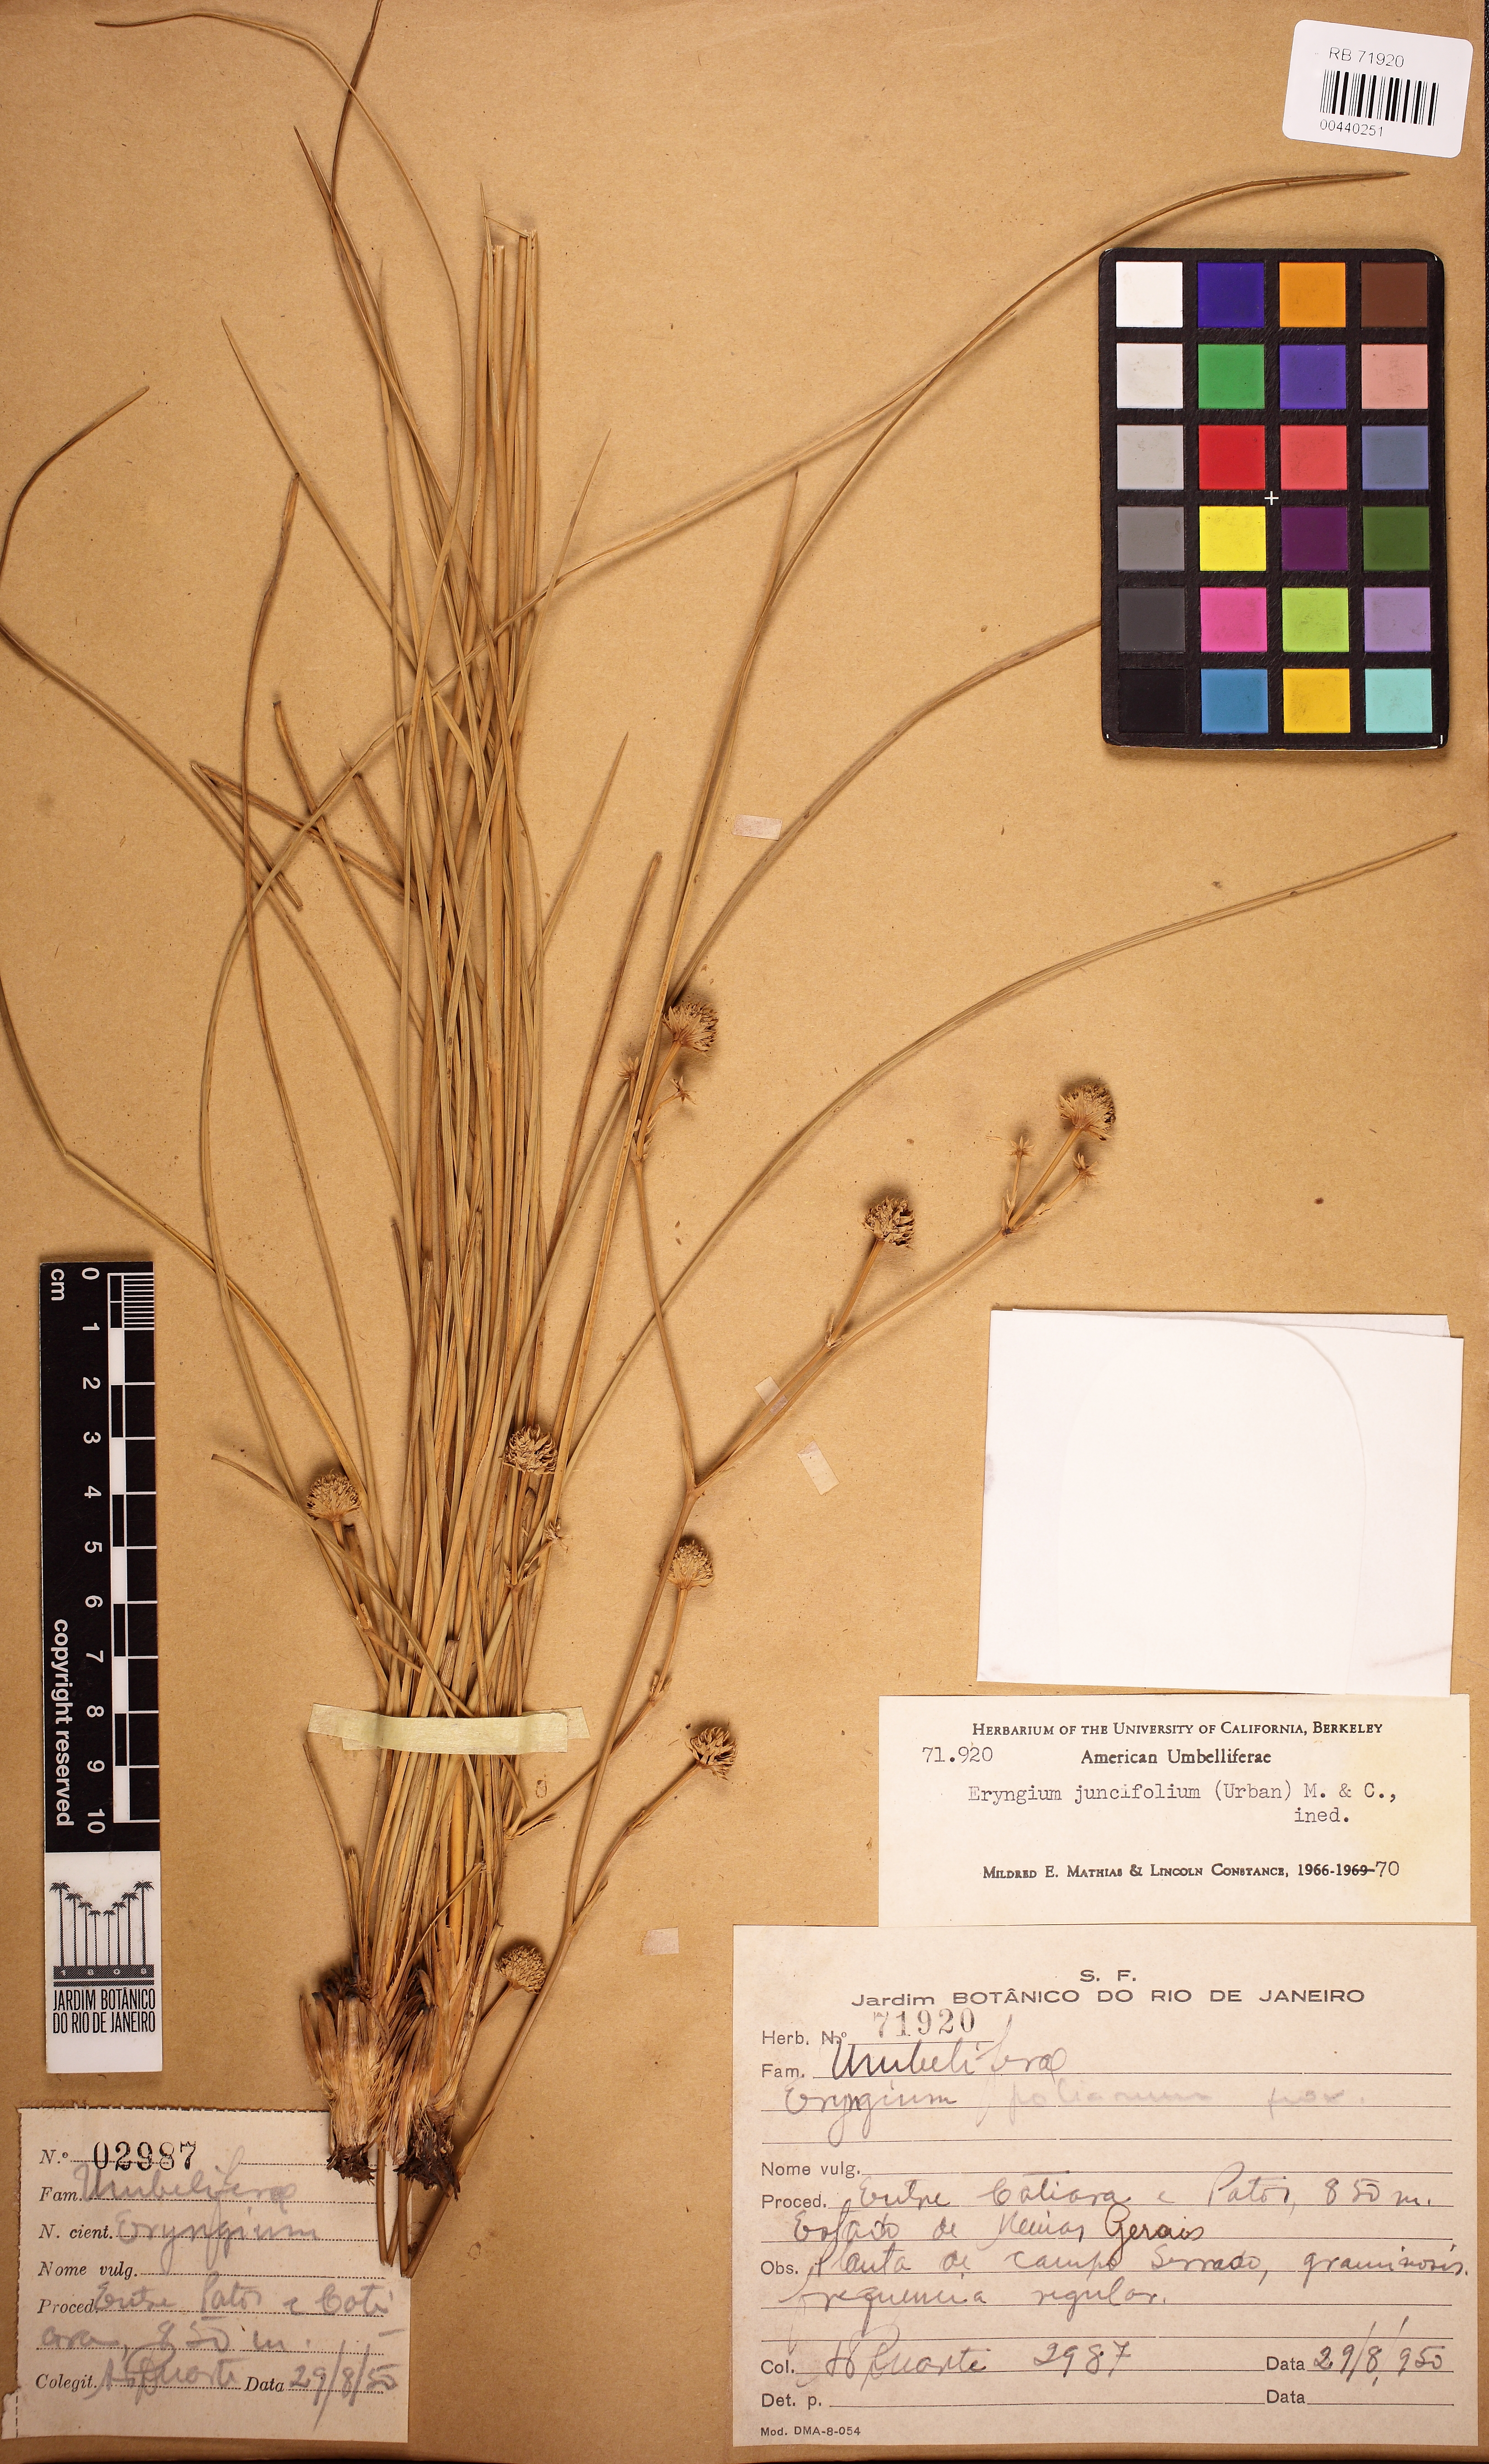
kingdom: Plantae
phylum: Tracheophyta
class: Magnoliopsida
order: Apiales
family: Apiaceae
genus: Eryngium
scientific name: Eryngium juncifolium
